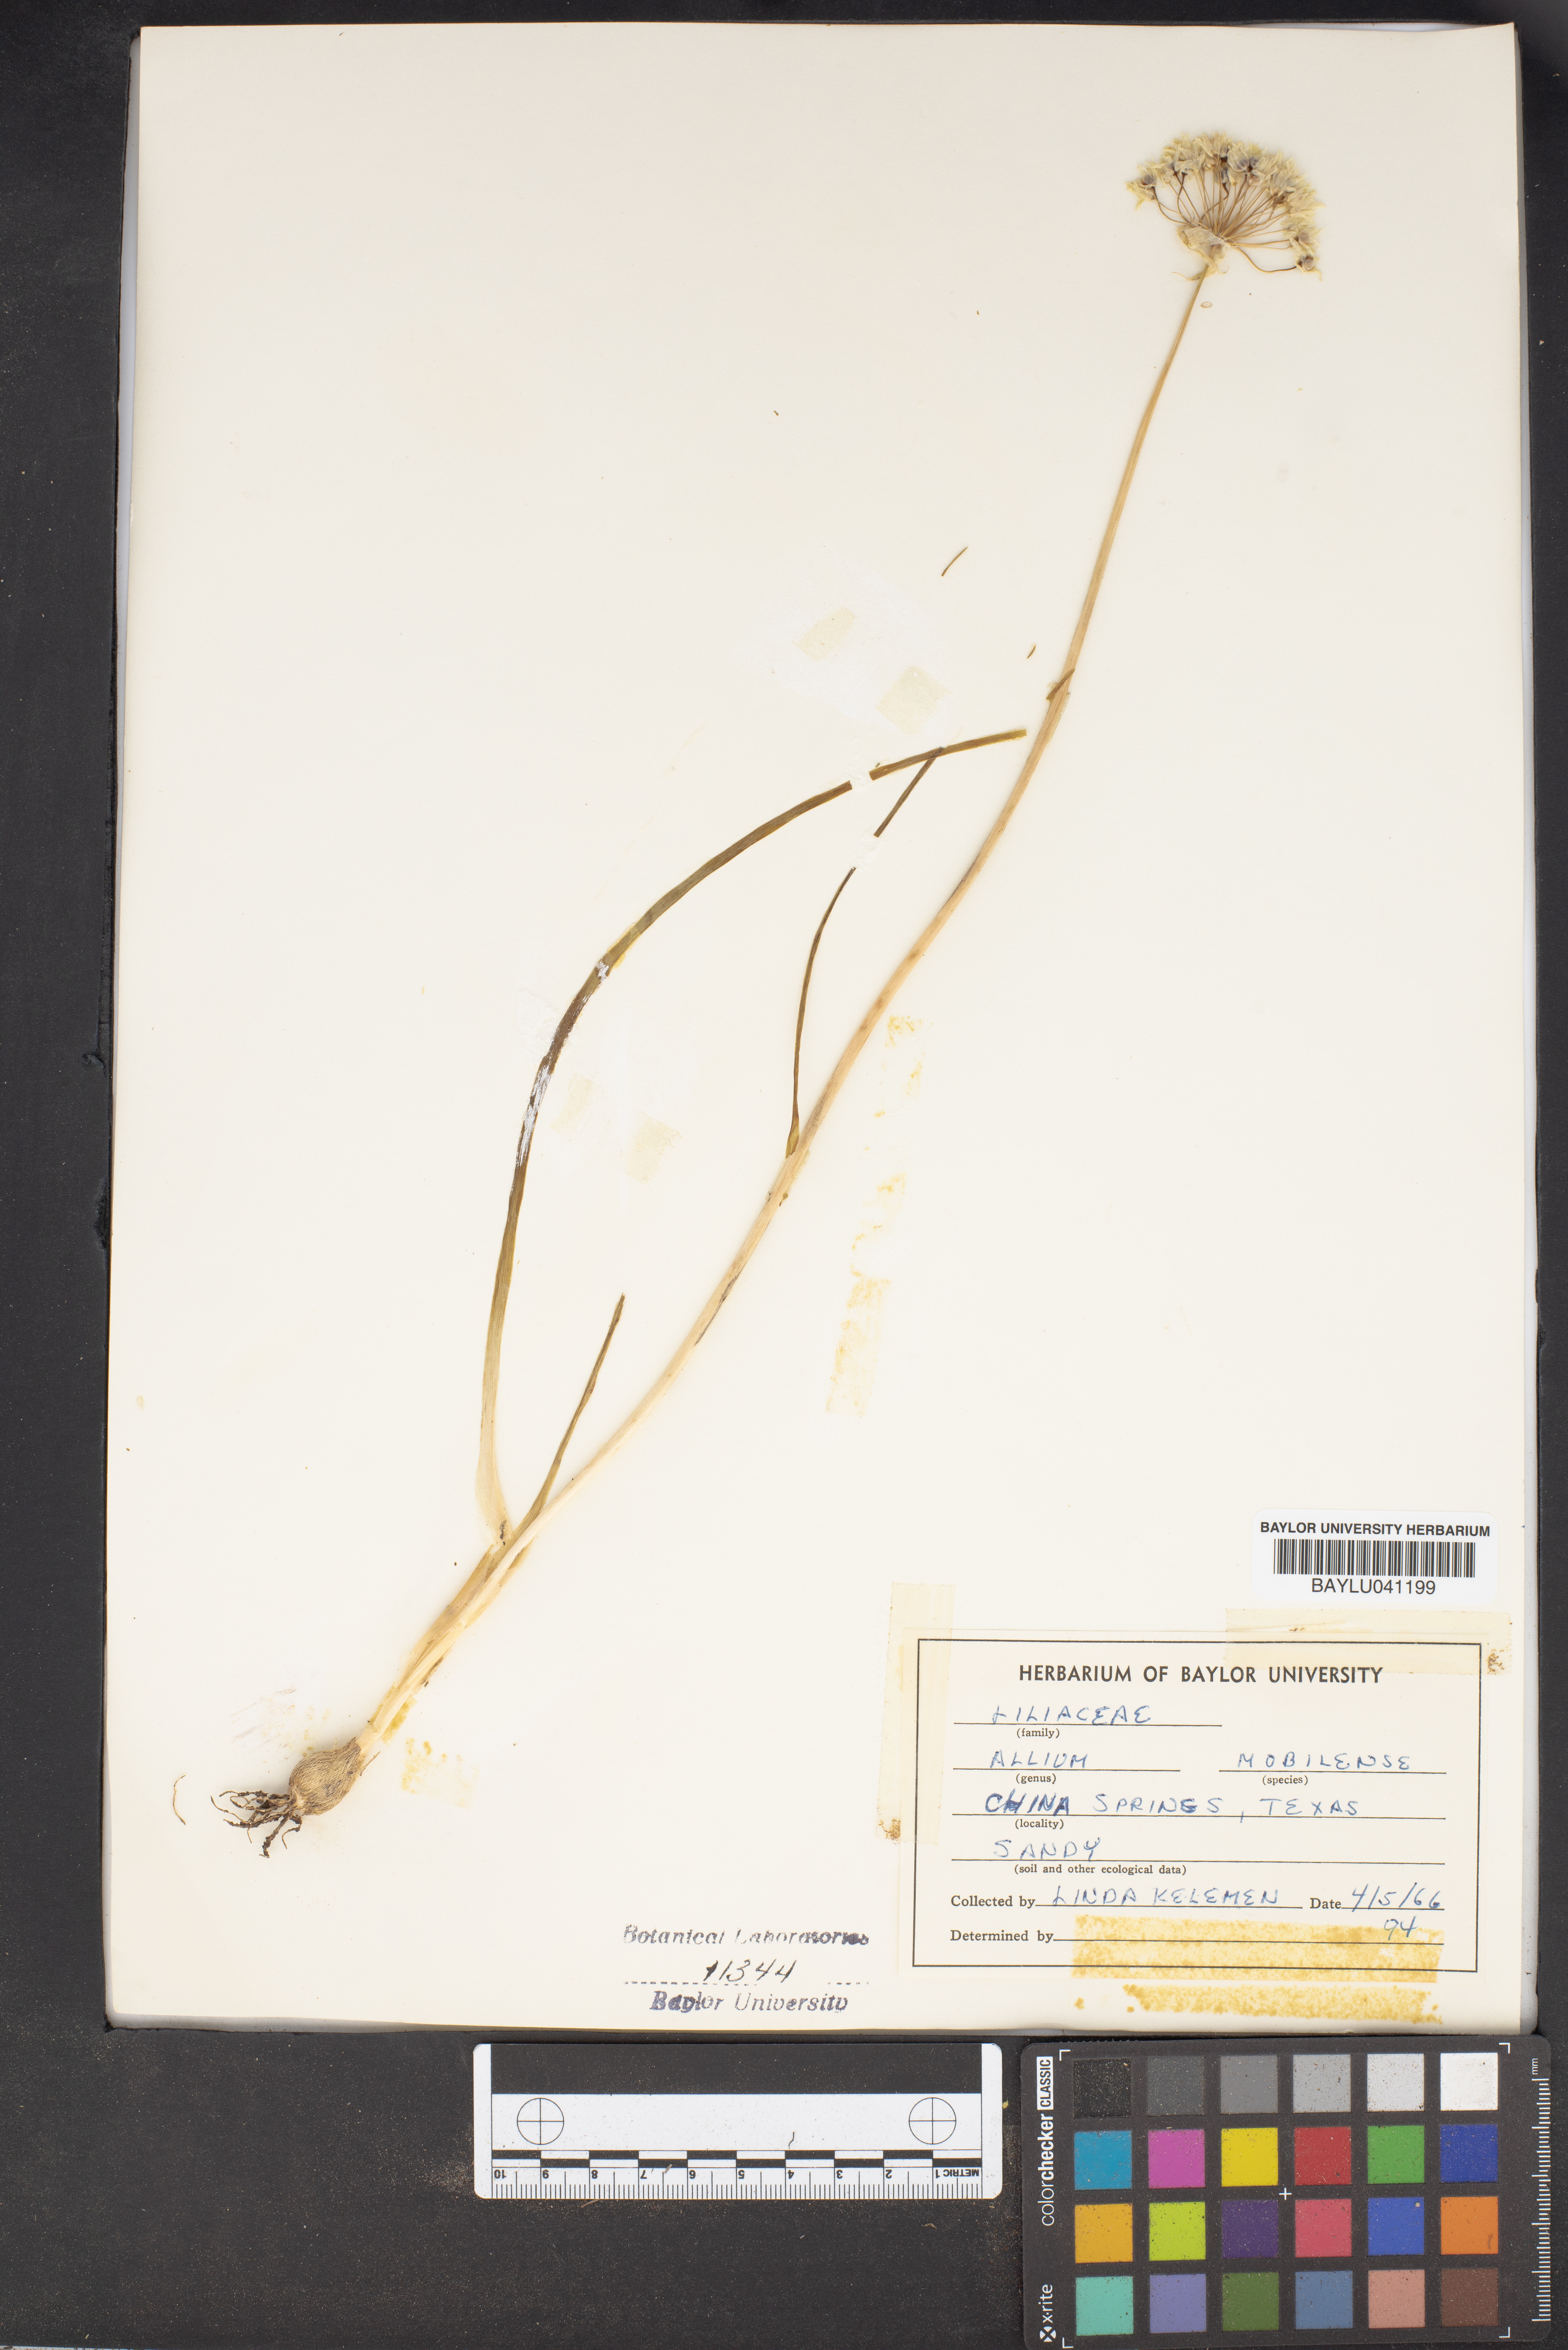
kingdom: Plantae
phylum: Tracheophyta
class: Liliopsida
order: Asparagales
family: Amaryllidaceae
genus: Allium
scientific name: Allium canadense
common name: Meadow garlic
